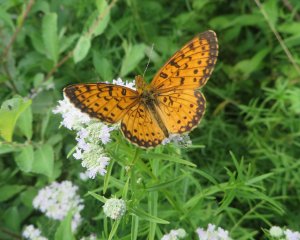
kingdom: Animalia
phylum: Arthropoda
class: Insecta
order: Lepidoptera
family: Nymphalidae
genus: Boloria
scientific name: Boloria selene
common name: Silver-bordered Fritillary
